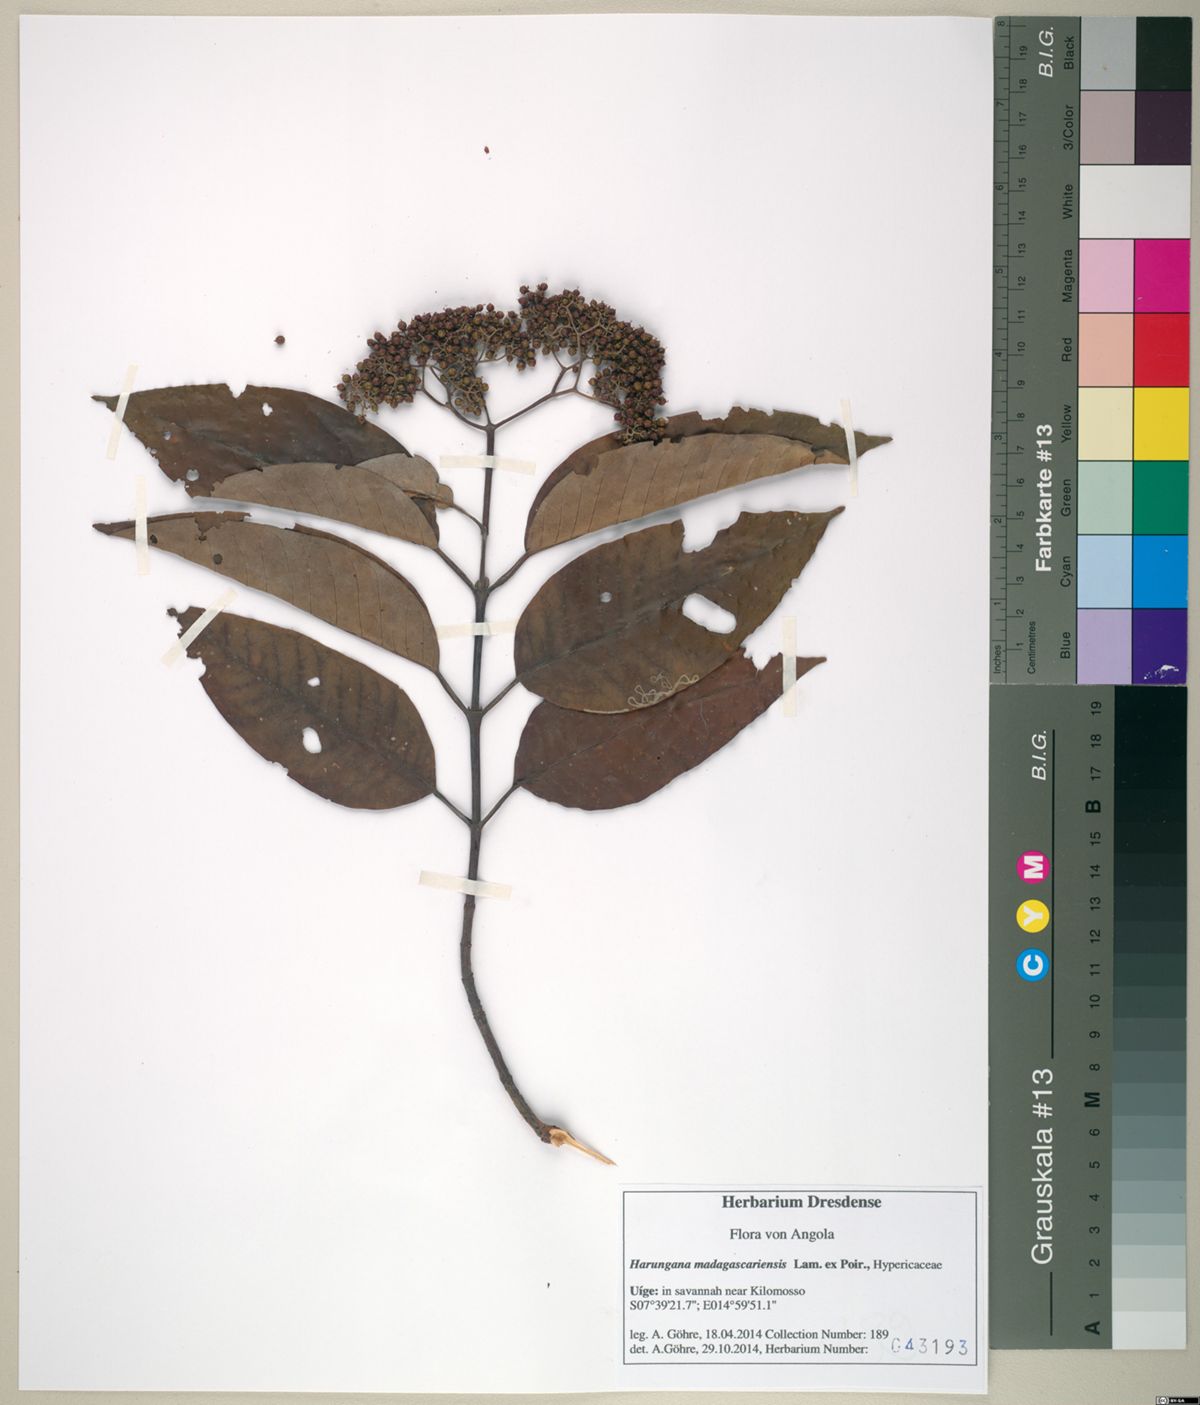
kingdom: Plantae
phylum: Tracheophyta
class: Magnoliopsida
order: Malpighiales
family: Hypericaceae
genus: Harungana
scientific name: Harungana madagascariensis
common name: Orange milktree
